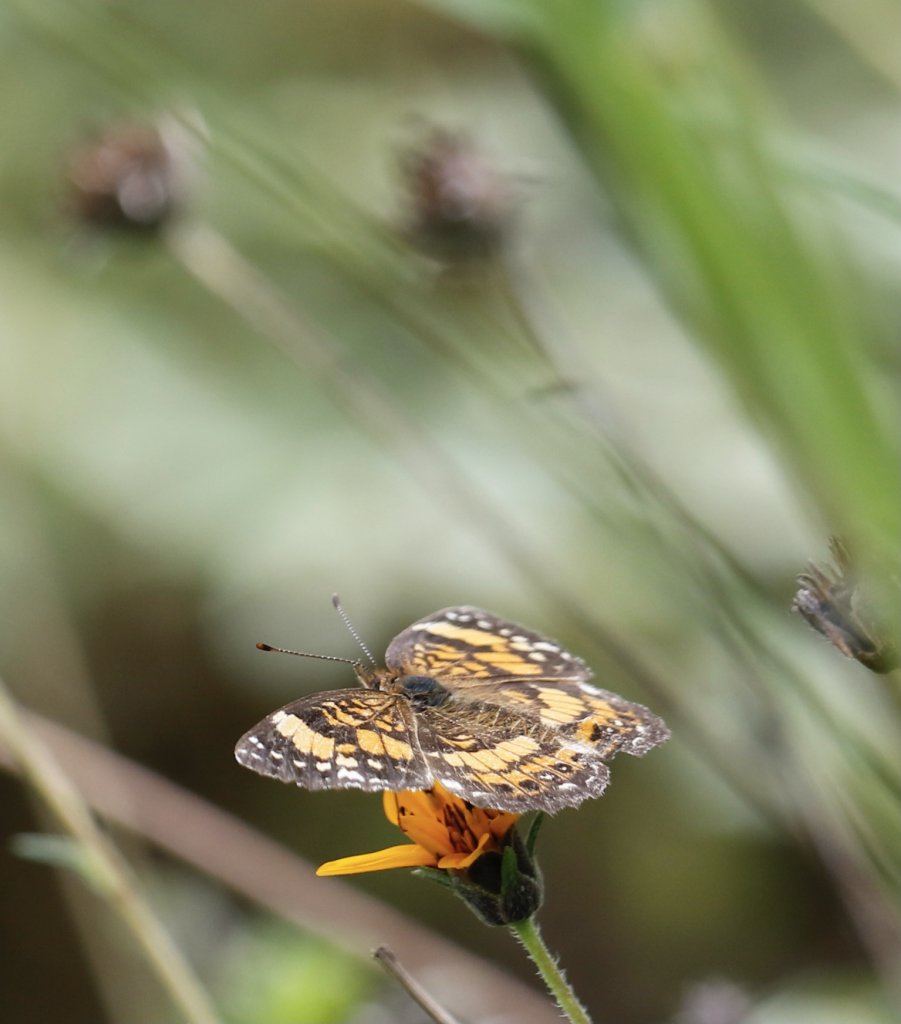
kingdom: Animalia
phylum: Arthropoda
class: Insecta
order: Lepidoptera
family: Nymphalidae
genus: Chlosyne
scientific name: Chlosyne nycteis
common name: Silvery Checkerspot
